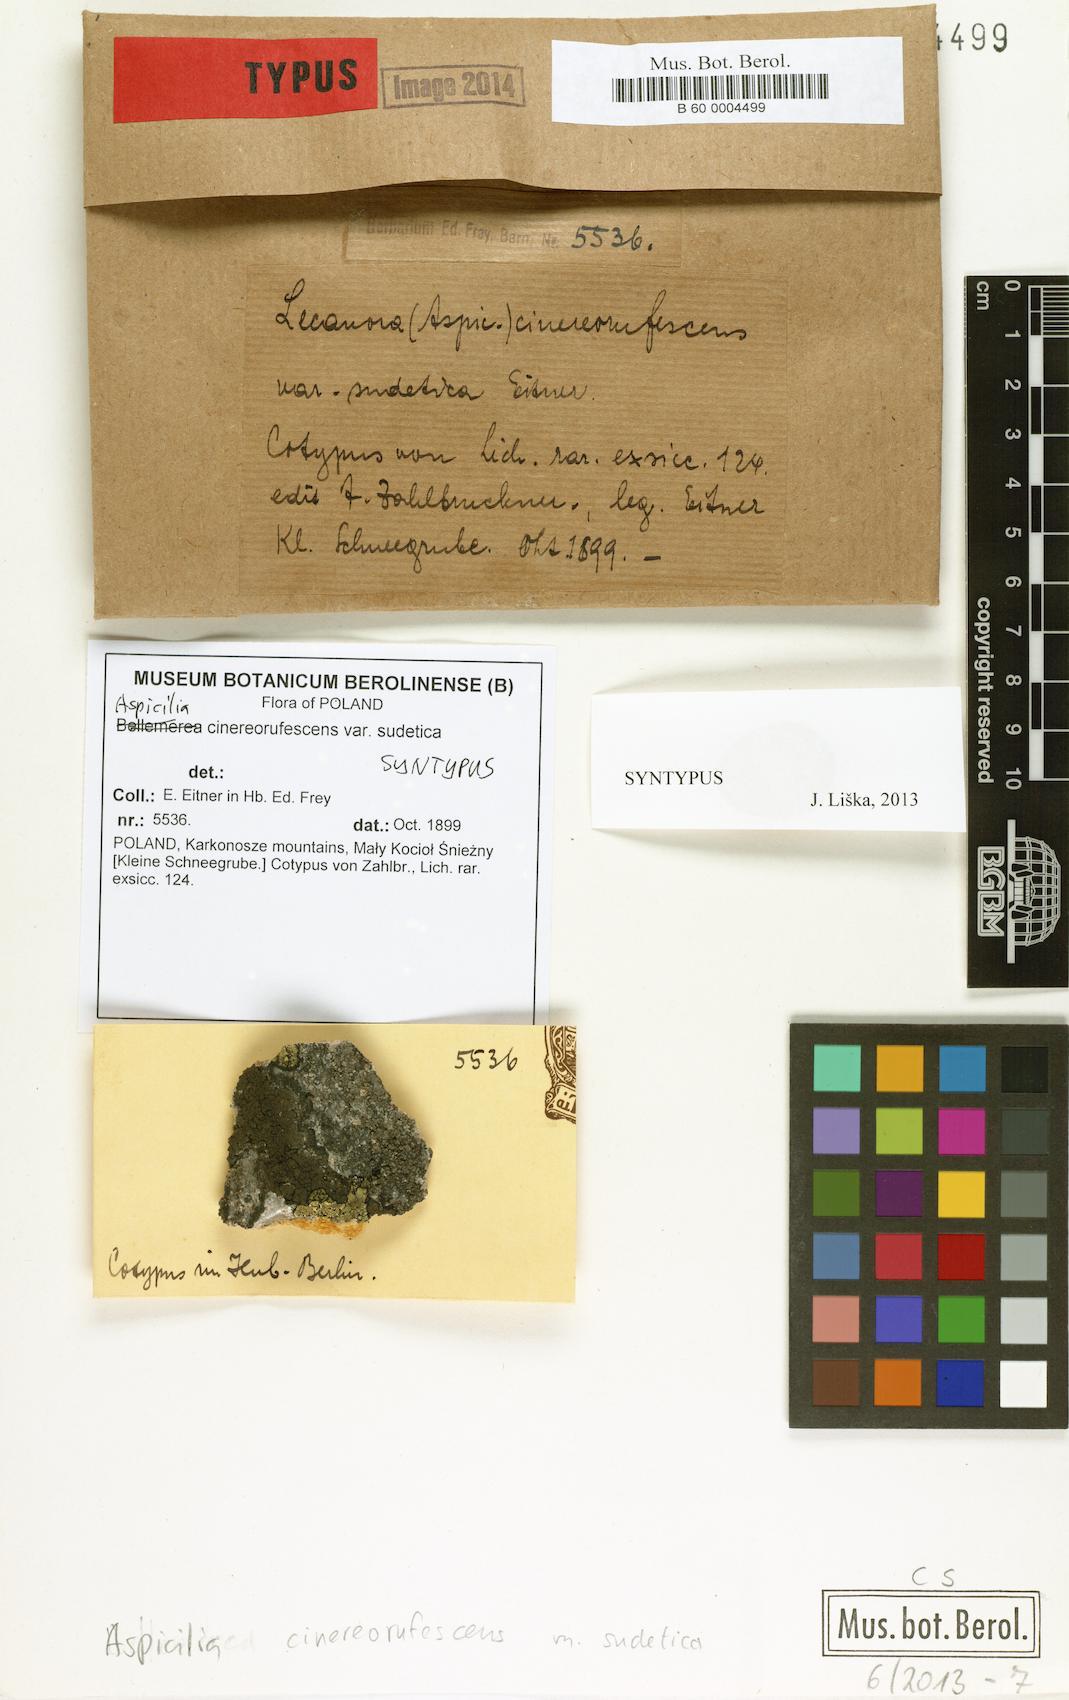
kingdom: Fungi
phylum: Ascomycota
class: Lecanoromycetes
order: Lecideales
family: Lecideaceae
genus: Bellemerea
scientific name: Bellemerea cinereorufescens
